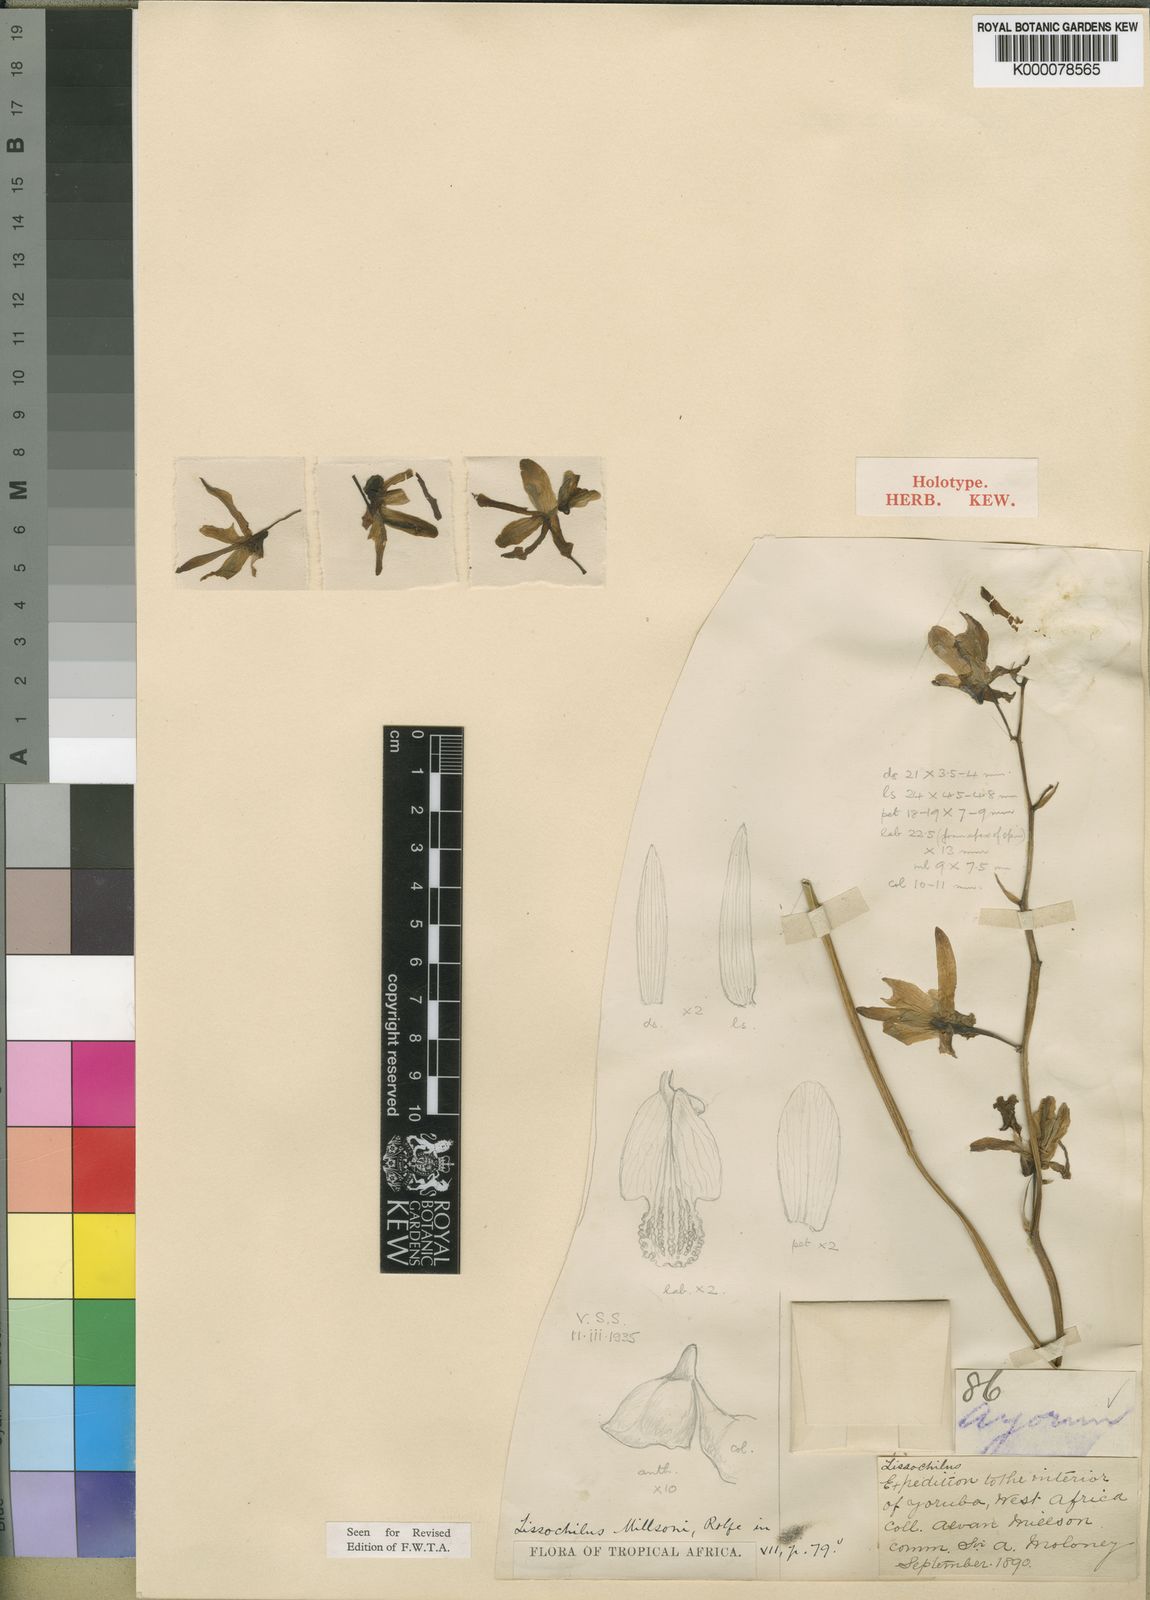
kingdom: Plantae
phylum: Tracheophyta
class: Liliopsida
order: Asparagales
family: Orchidaceae
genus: Eulophia
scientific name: Eulophia flavopurpurea
